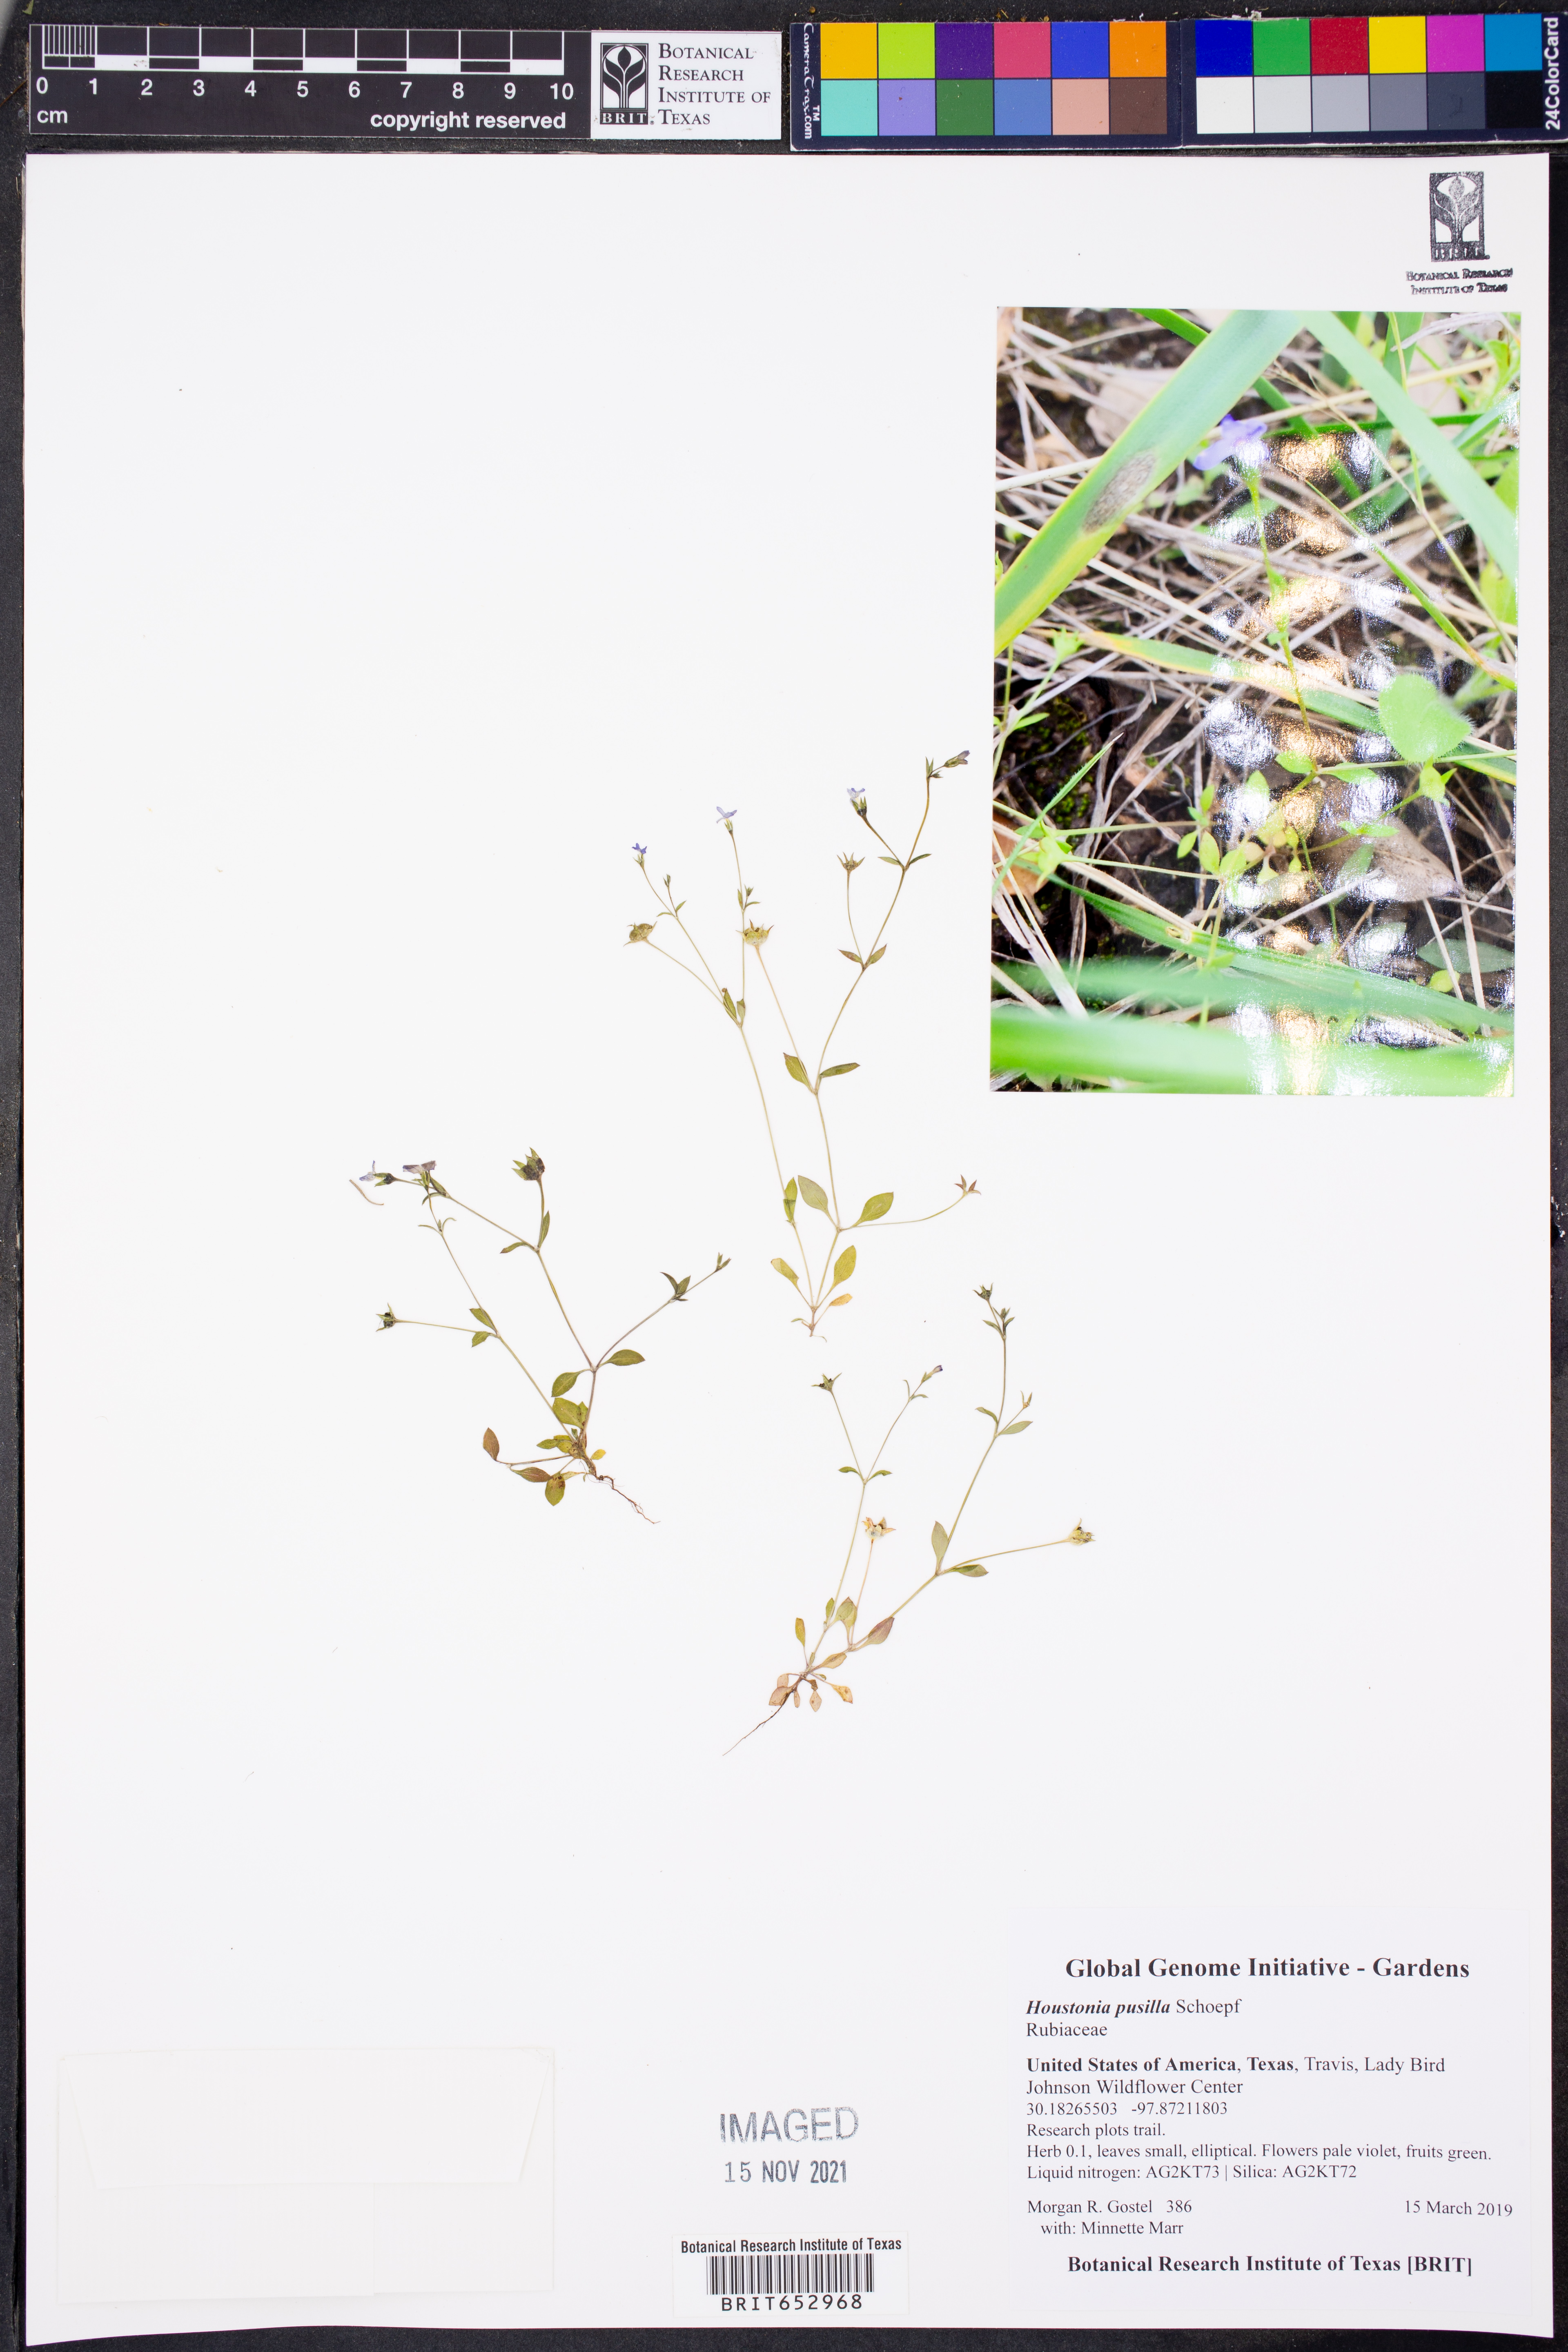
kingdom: Plantae
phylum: Tracheophyta
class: Magnoliopsida
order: Gentianales
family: Rubiaceae
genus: Houstonia
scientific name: Houstonia pusilla
